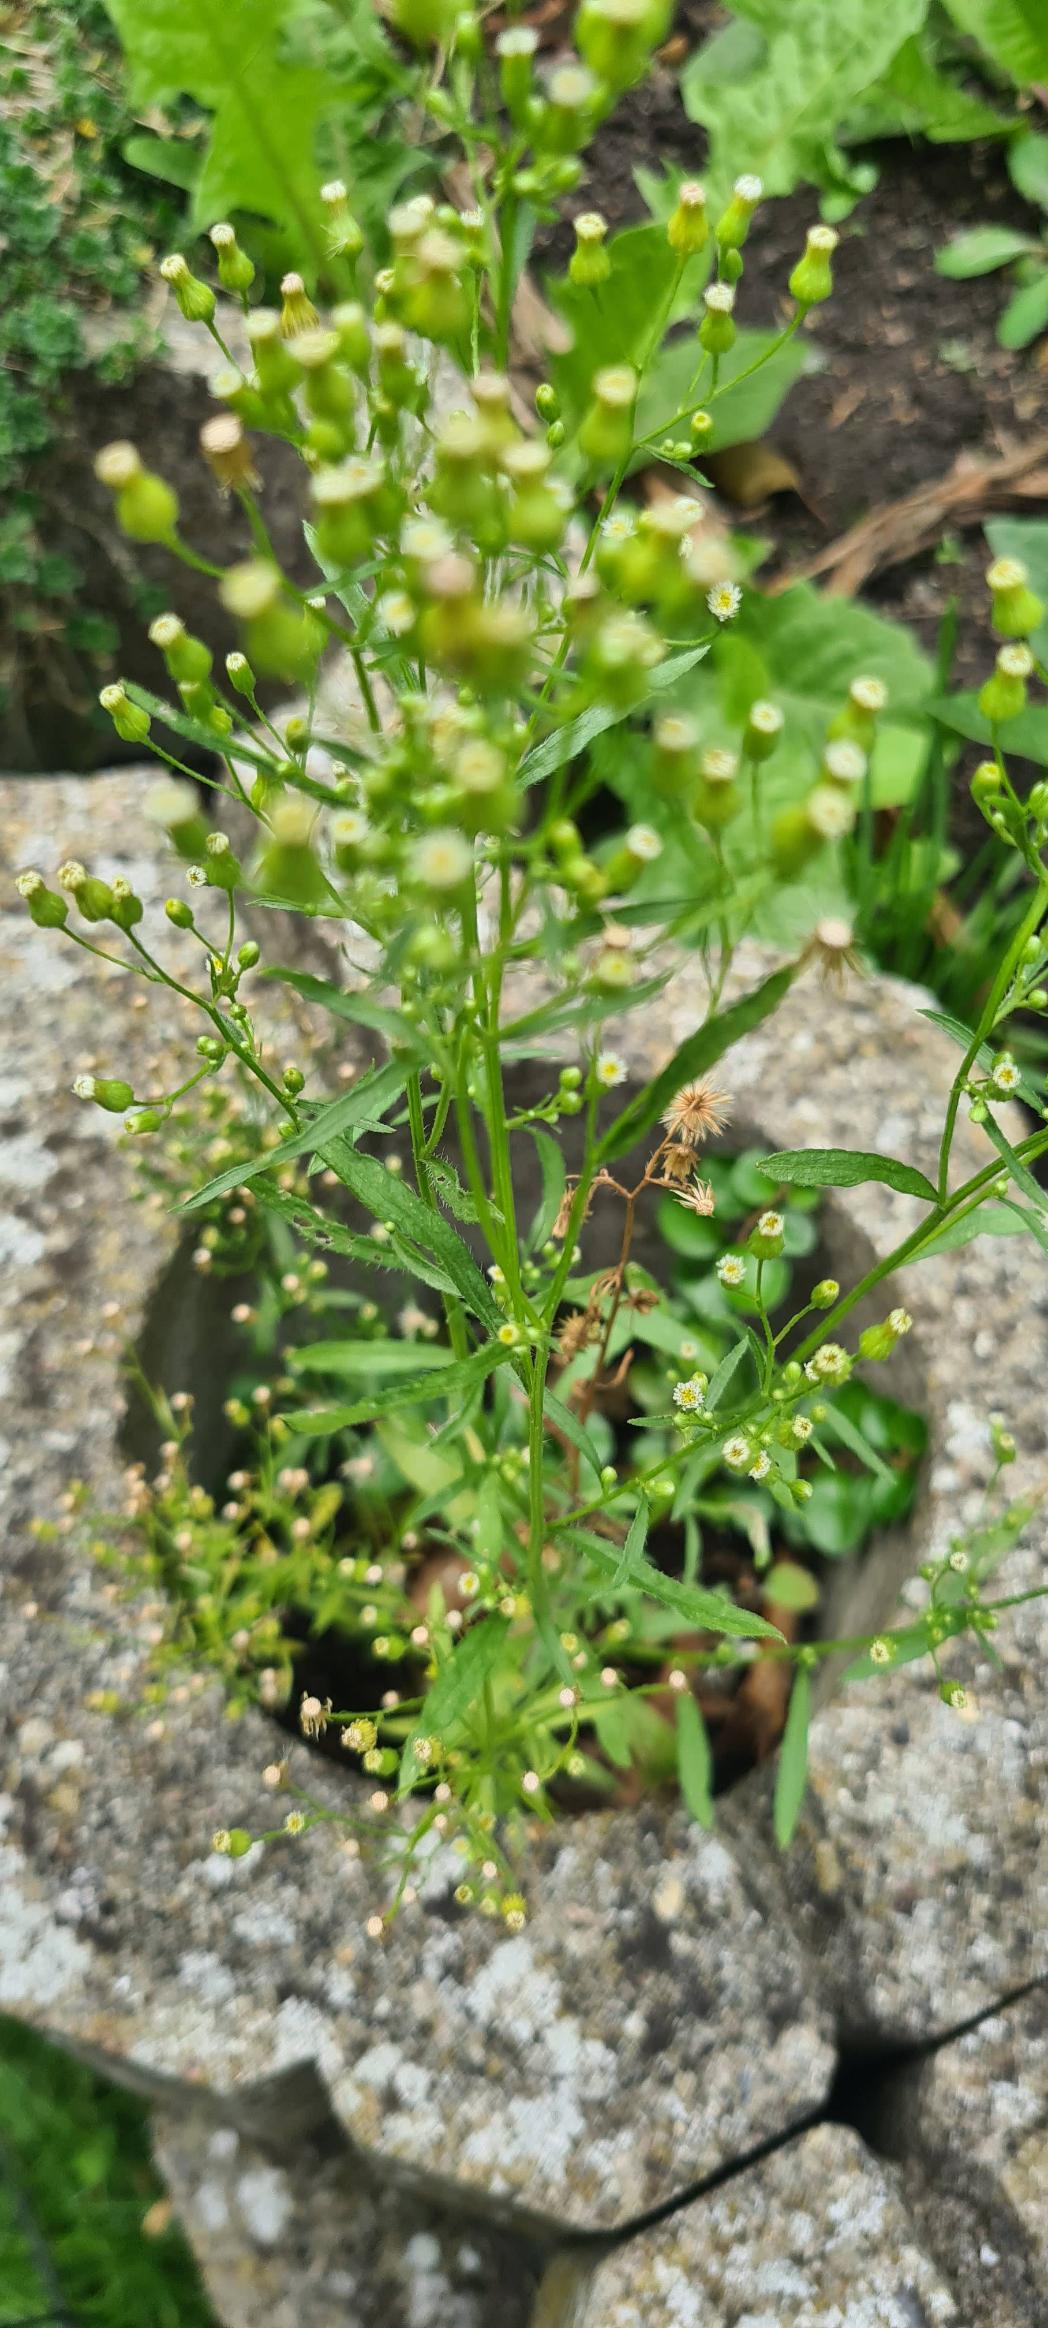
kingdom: Plantae
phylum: Tracheophyta
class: Magnoliopsida
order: Asterales
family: Asteraceae
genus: Erigeron
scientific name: Erigeron canadensis
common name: Kanadisk bakkestjerne
